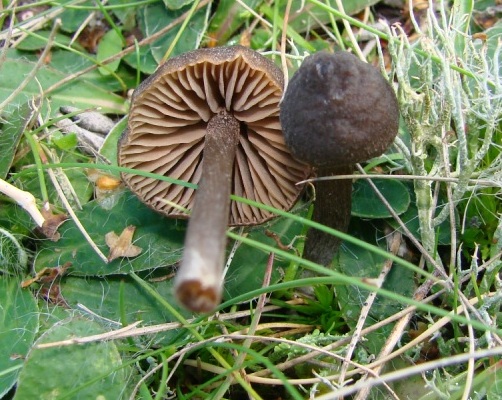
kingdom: Fungi
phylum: Basidiomycota
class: Agaricomycetes
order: Agaricales
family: Entolomataceae
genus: Entoloma
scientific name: Entoloma clandestinum
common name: tykbladet rødblad
